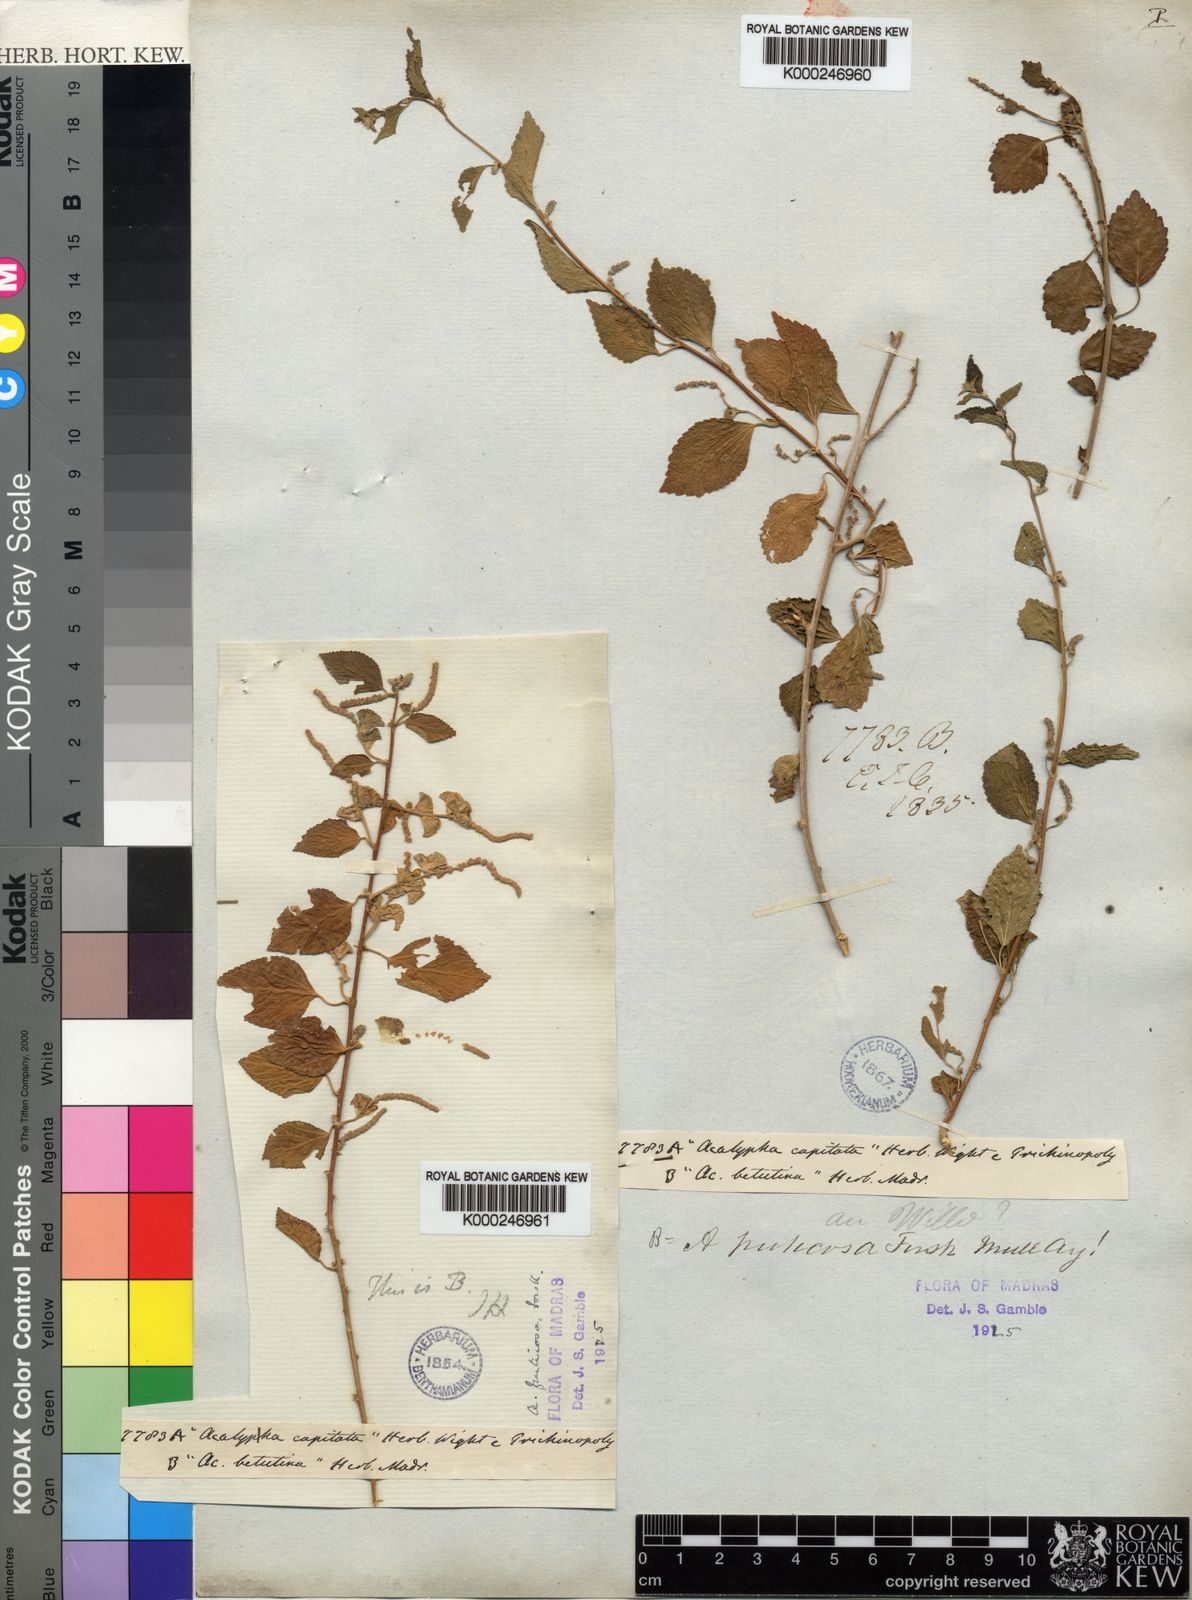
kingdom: Plantae
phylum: Tracheophyta
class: Magnoliopsida
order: Malpighiales
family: Euphorbiaceae
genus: Acalypha
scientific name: Acalypha fruticosa
